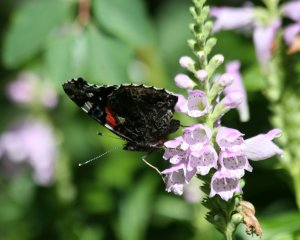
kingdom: Animalia
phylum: Arthropoda
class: Insecta
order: Lepidoptera
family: Nymphalidae
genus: Vanessa
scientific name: Vanessa atalanta
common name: Red Admiral
